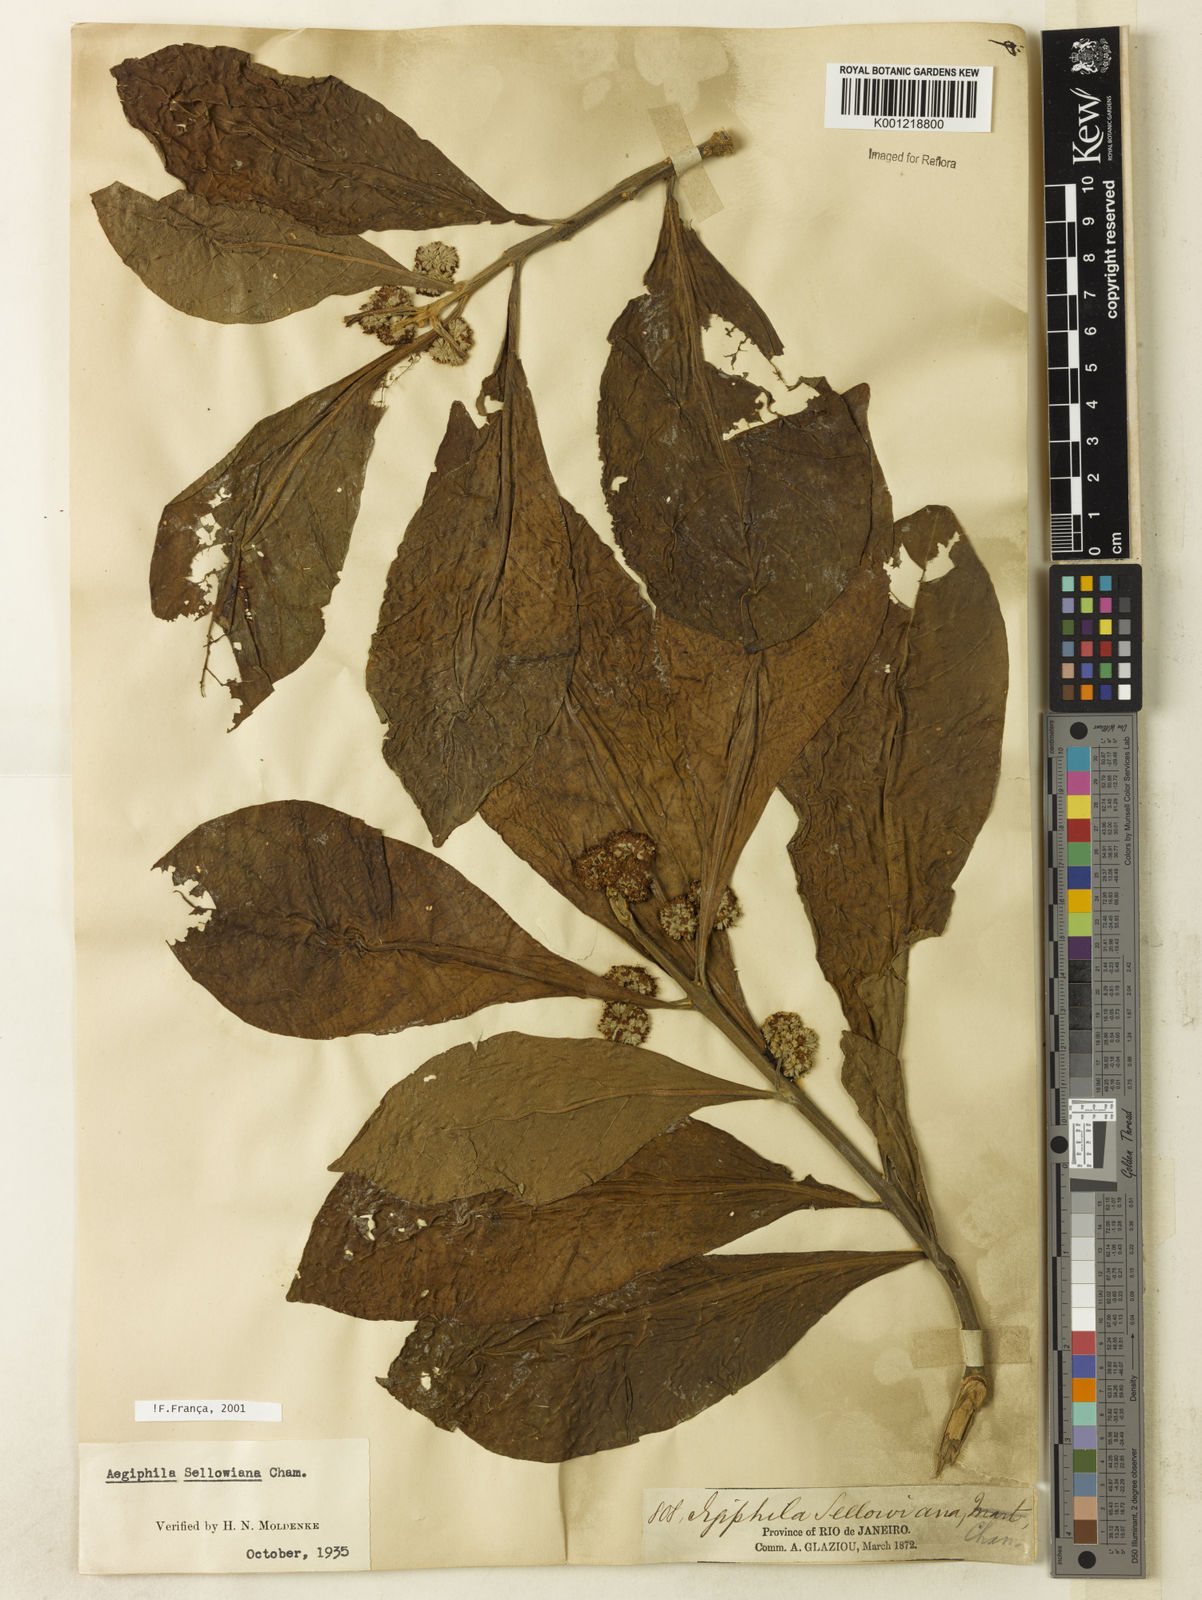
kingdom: Plantae
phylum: Tracheophyta
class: Magnoliopsida
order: Lamiales
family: Lamiaceae
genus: Aegiphila
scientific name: Aegiphila verticillata
